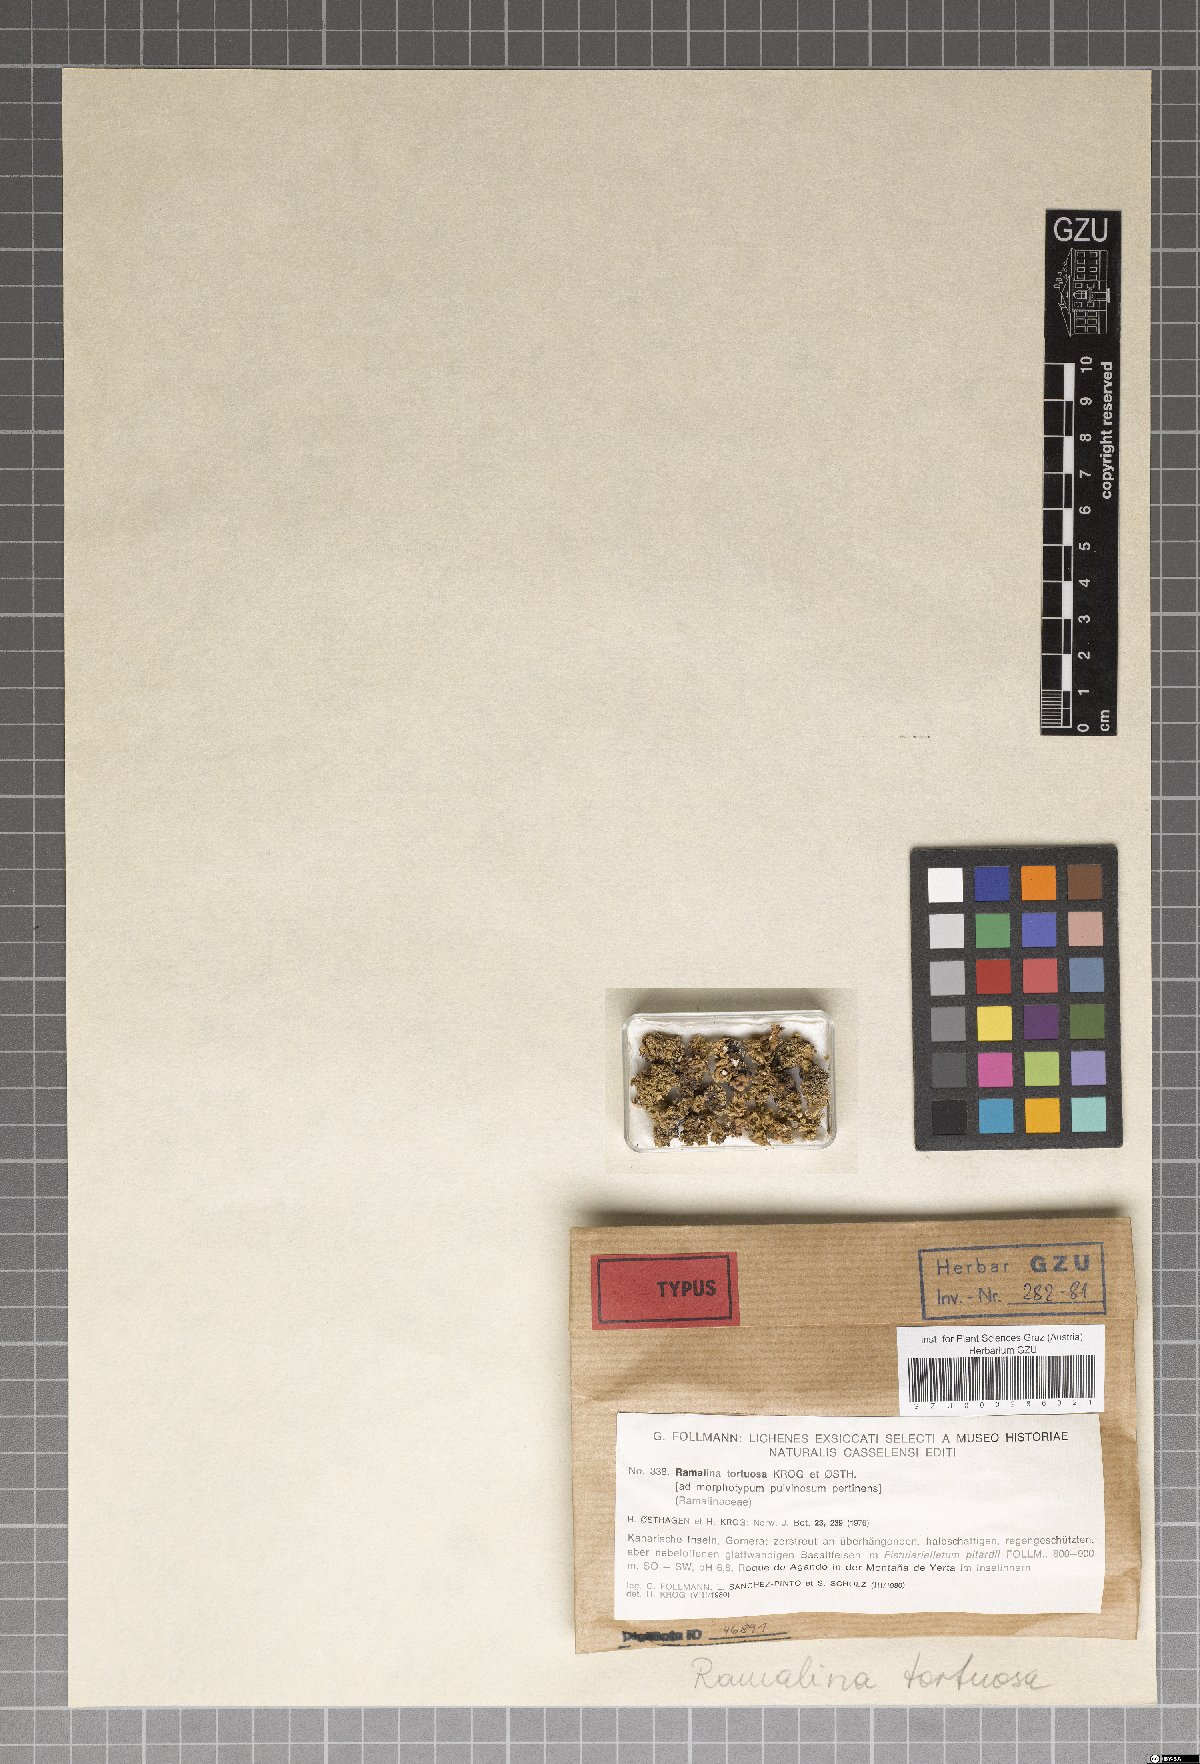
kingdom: Fungi
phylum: Ascomycota
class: Lecanoromycetes
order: Lecanorales
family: Ramalinaceae
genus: Ramalina
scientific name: Ramalina tortuosa
